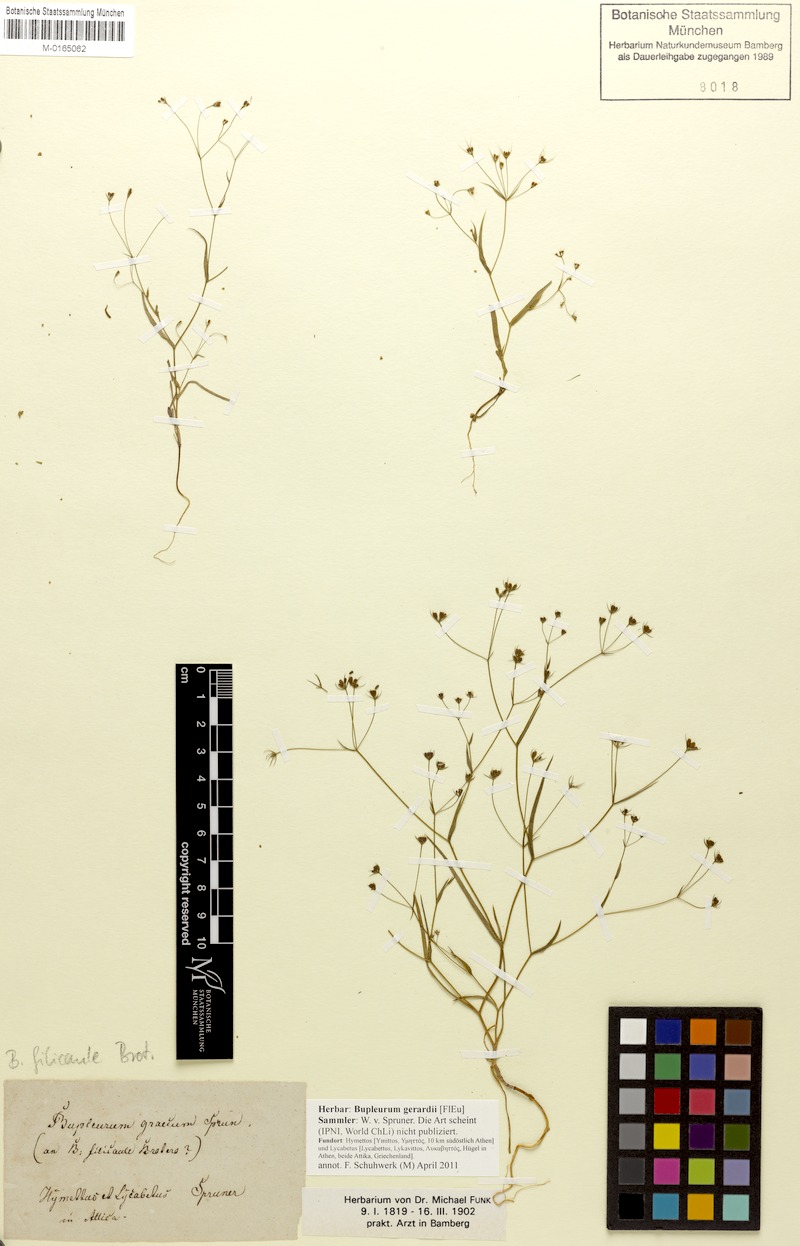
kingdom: Plantae
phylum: Tracheophyta
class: Magnoliopsida
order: Apiales
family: Apiaceae
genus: Bupleurum
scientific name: Bupleurum gerardi
